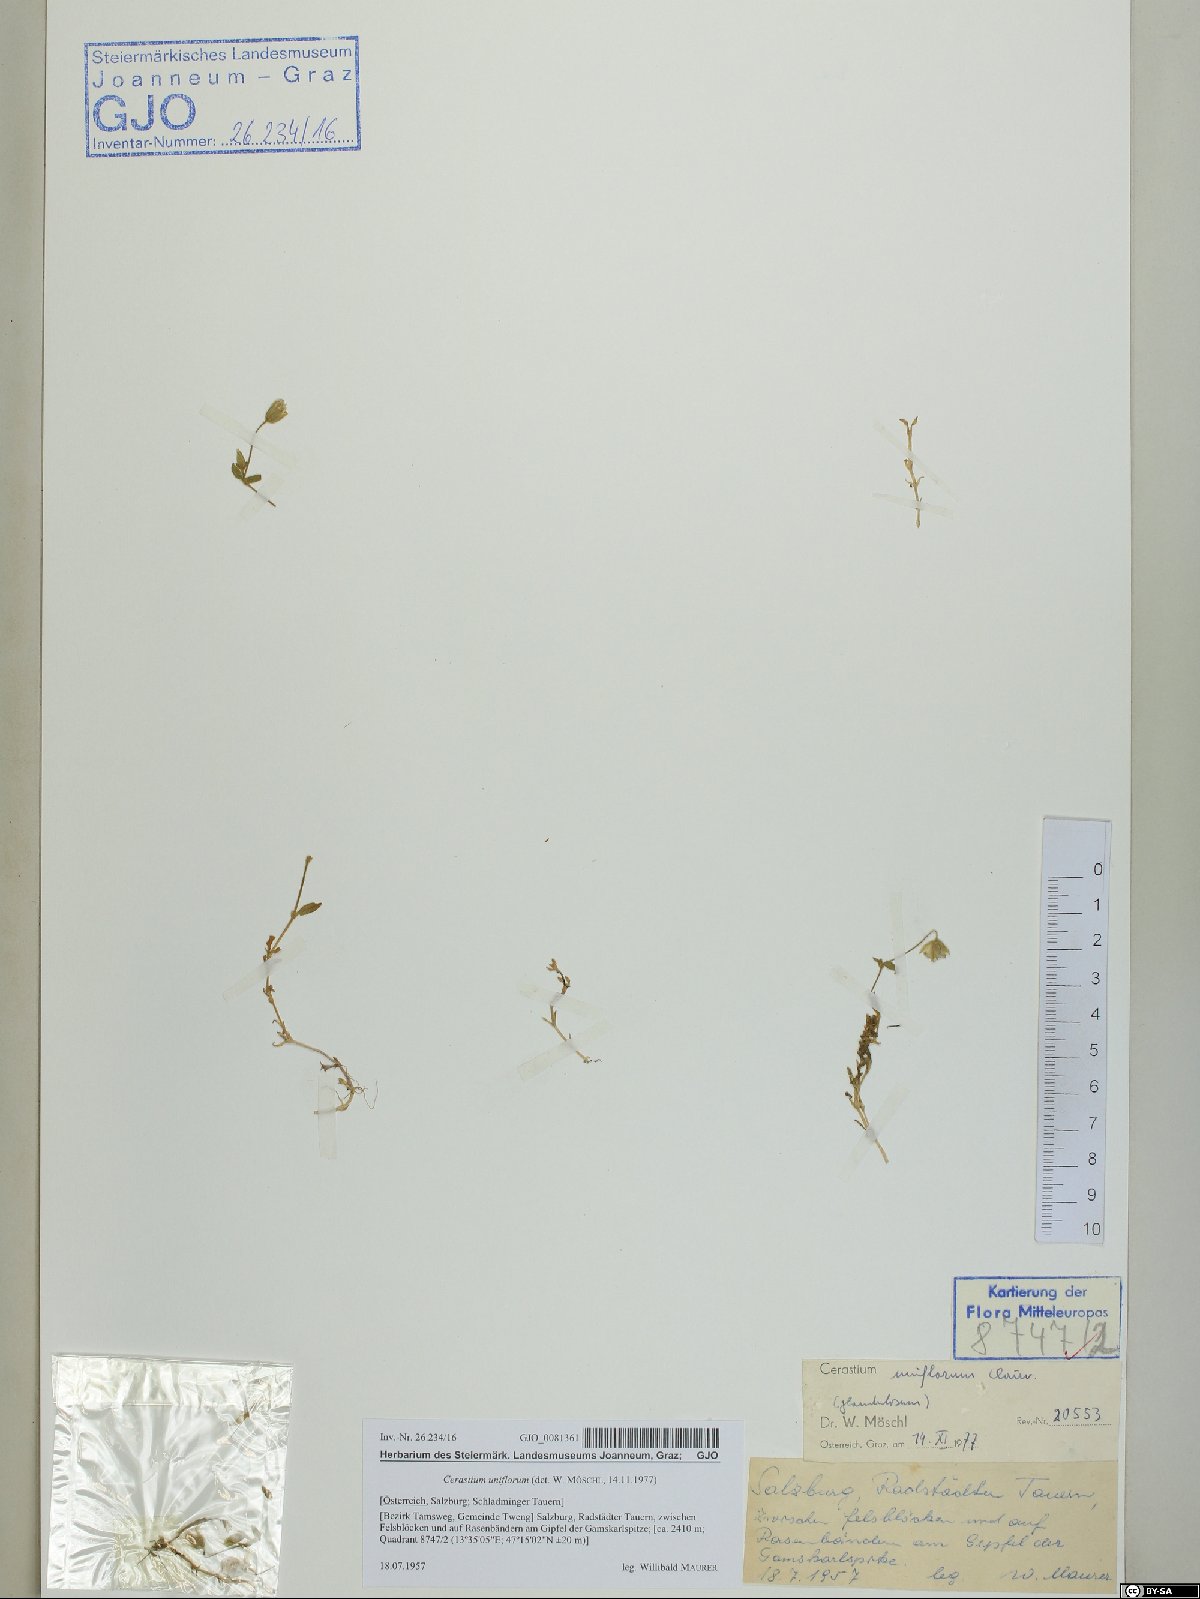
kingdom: Plantae
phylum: Tracheophyta
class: Magnoliopsida
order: Caryophyllales
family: Caryophyllaceae
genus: Cerastium
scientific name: Cerastium uniflorum
